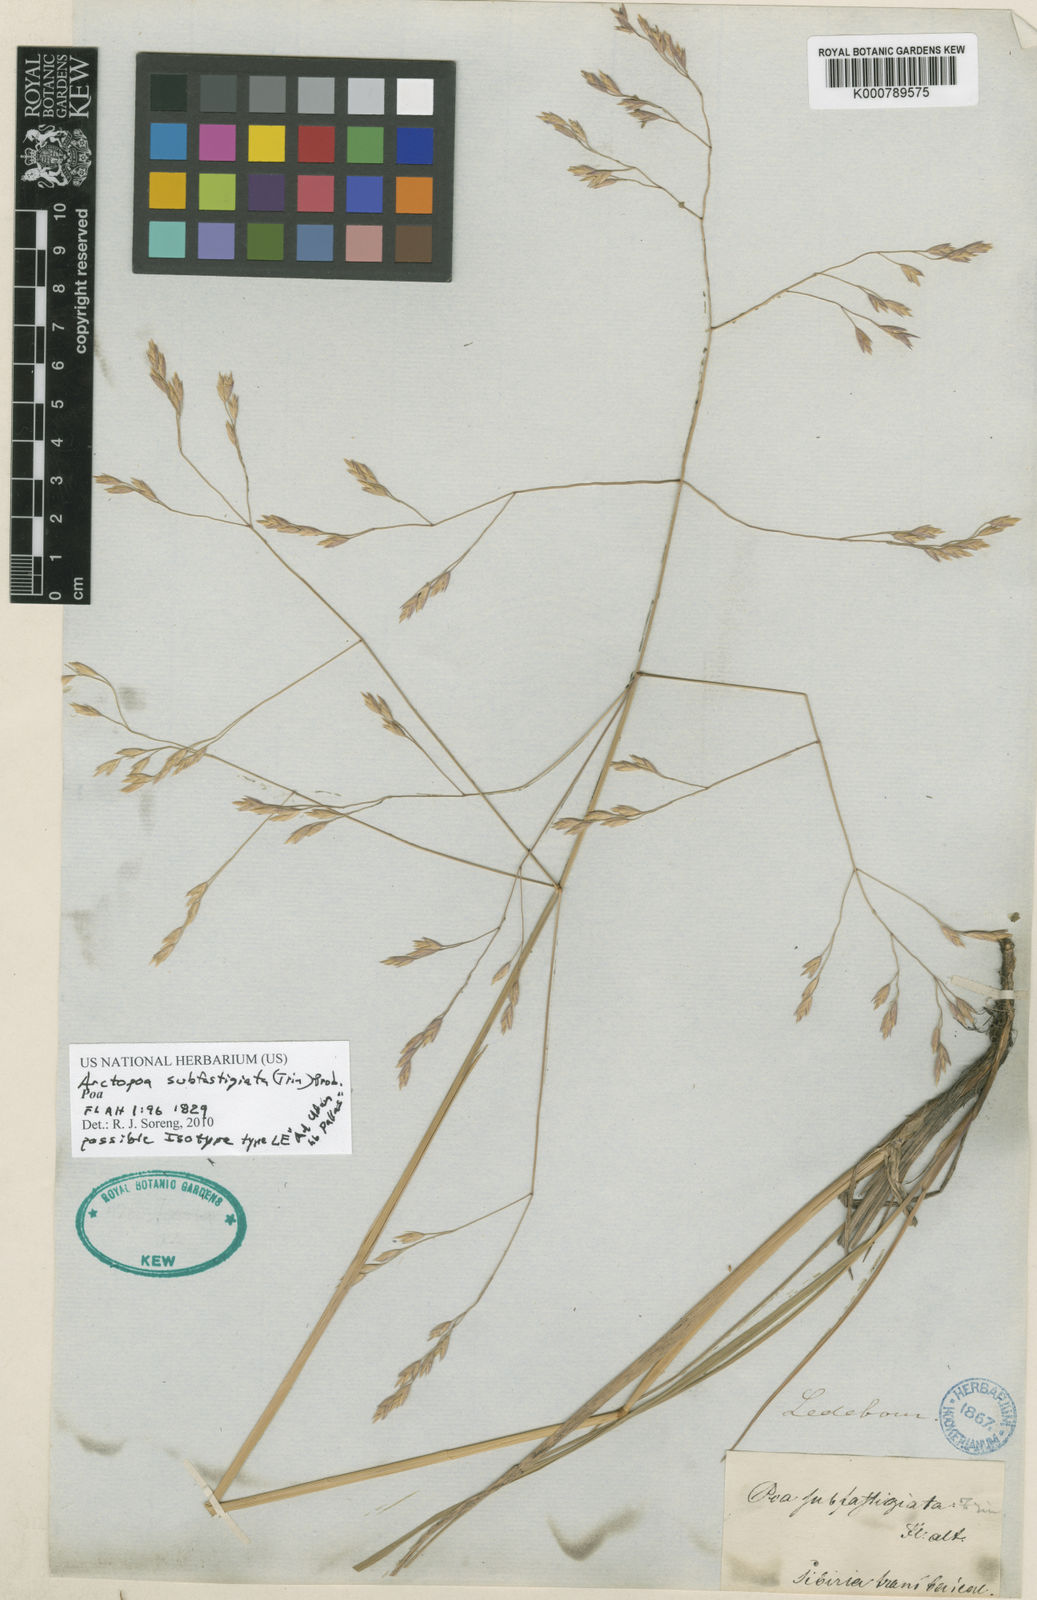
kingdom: Plantae
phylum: Tracheophyta
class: Liliopsida
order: Poales
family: Poaceae
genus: Poa
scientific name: Poa
